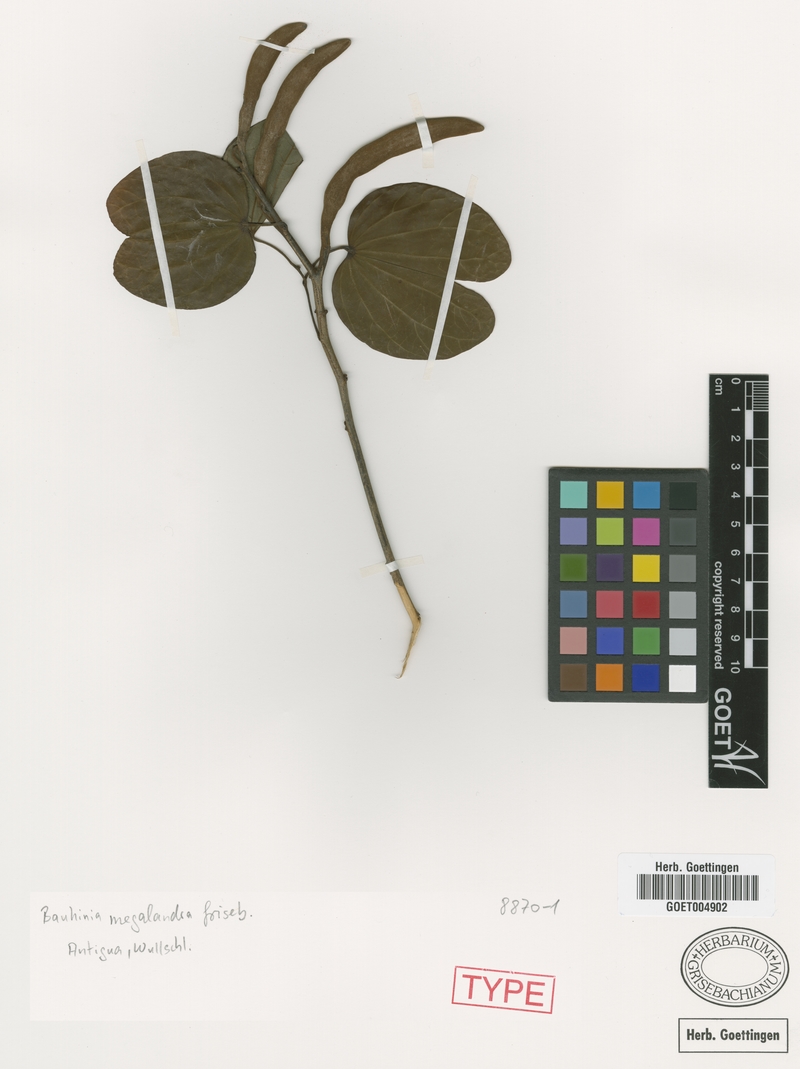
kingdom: Plantae
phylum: Tracheophyta
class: Magnoliopsida
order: Fabales
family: Fabaceae
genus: Bauhinia
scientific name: Bauhinia multinervia
